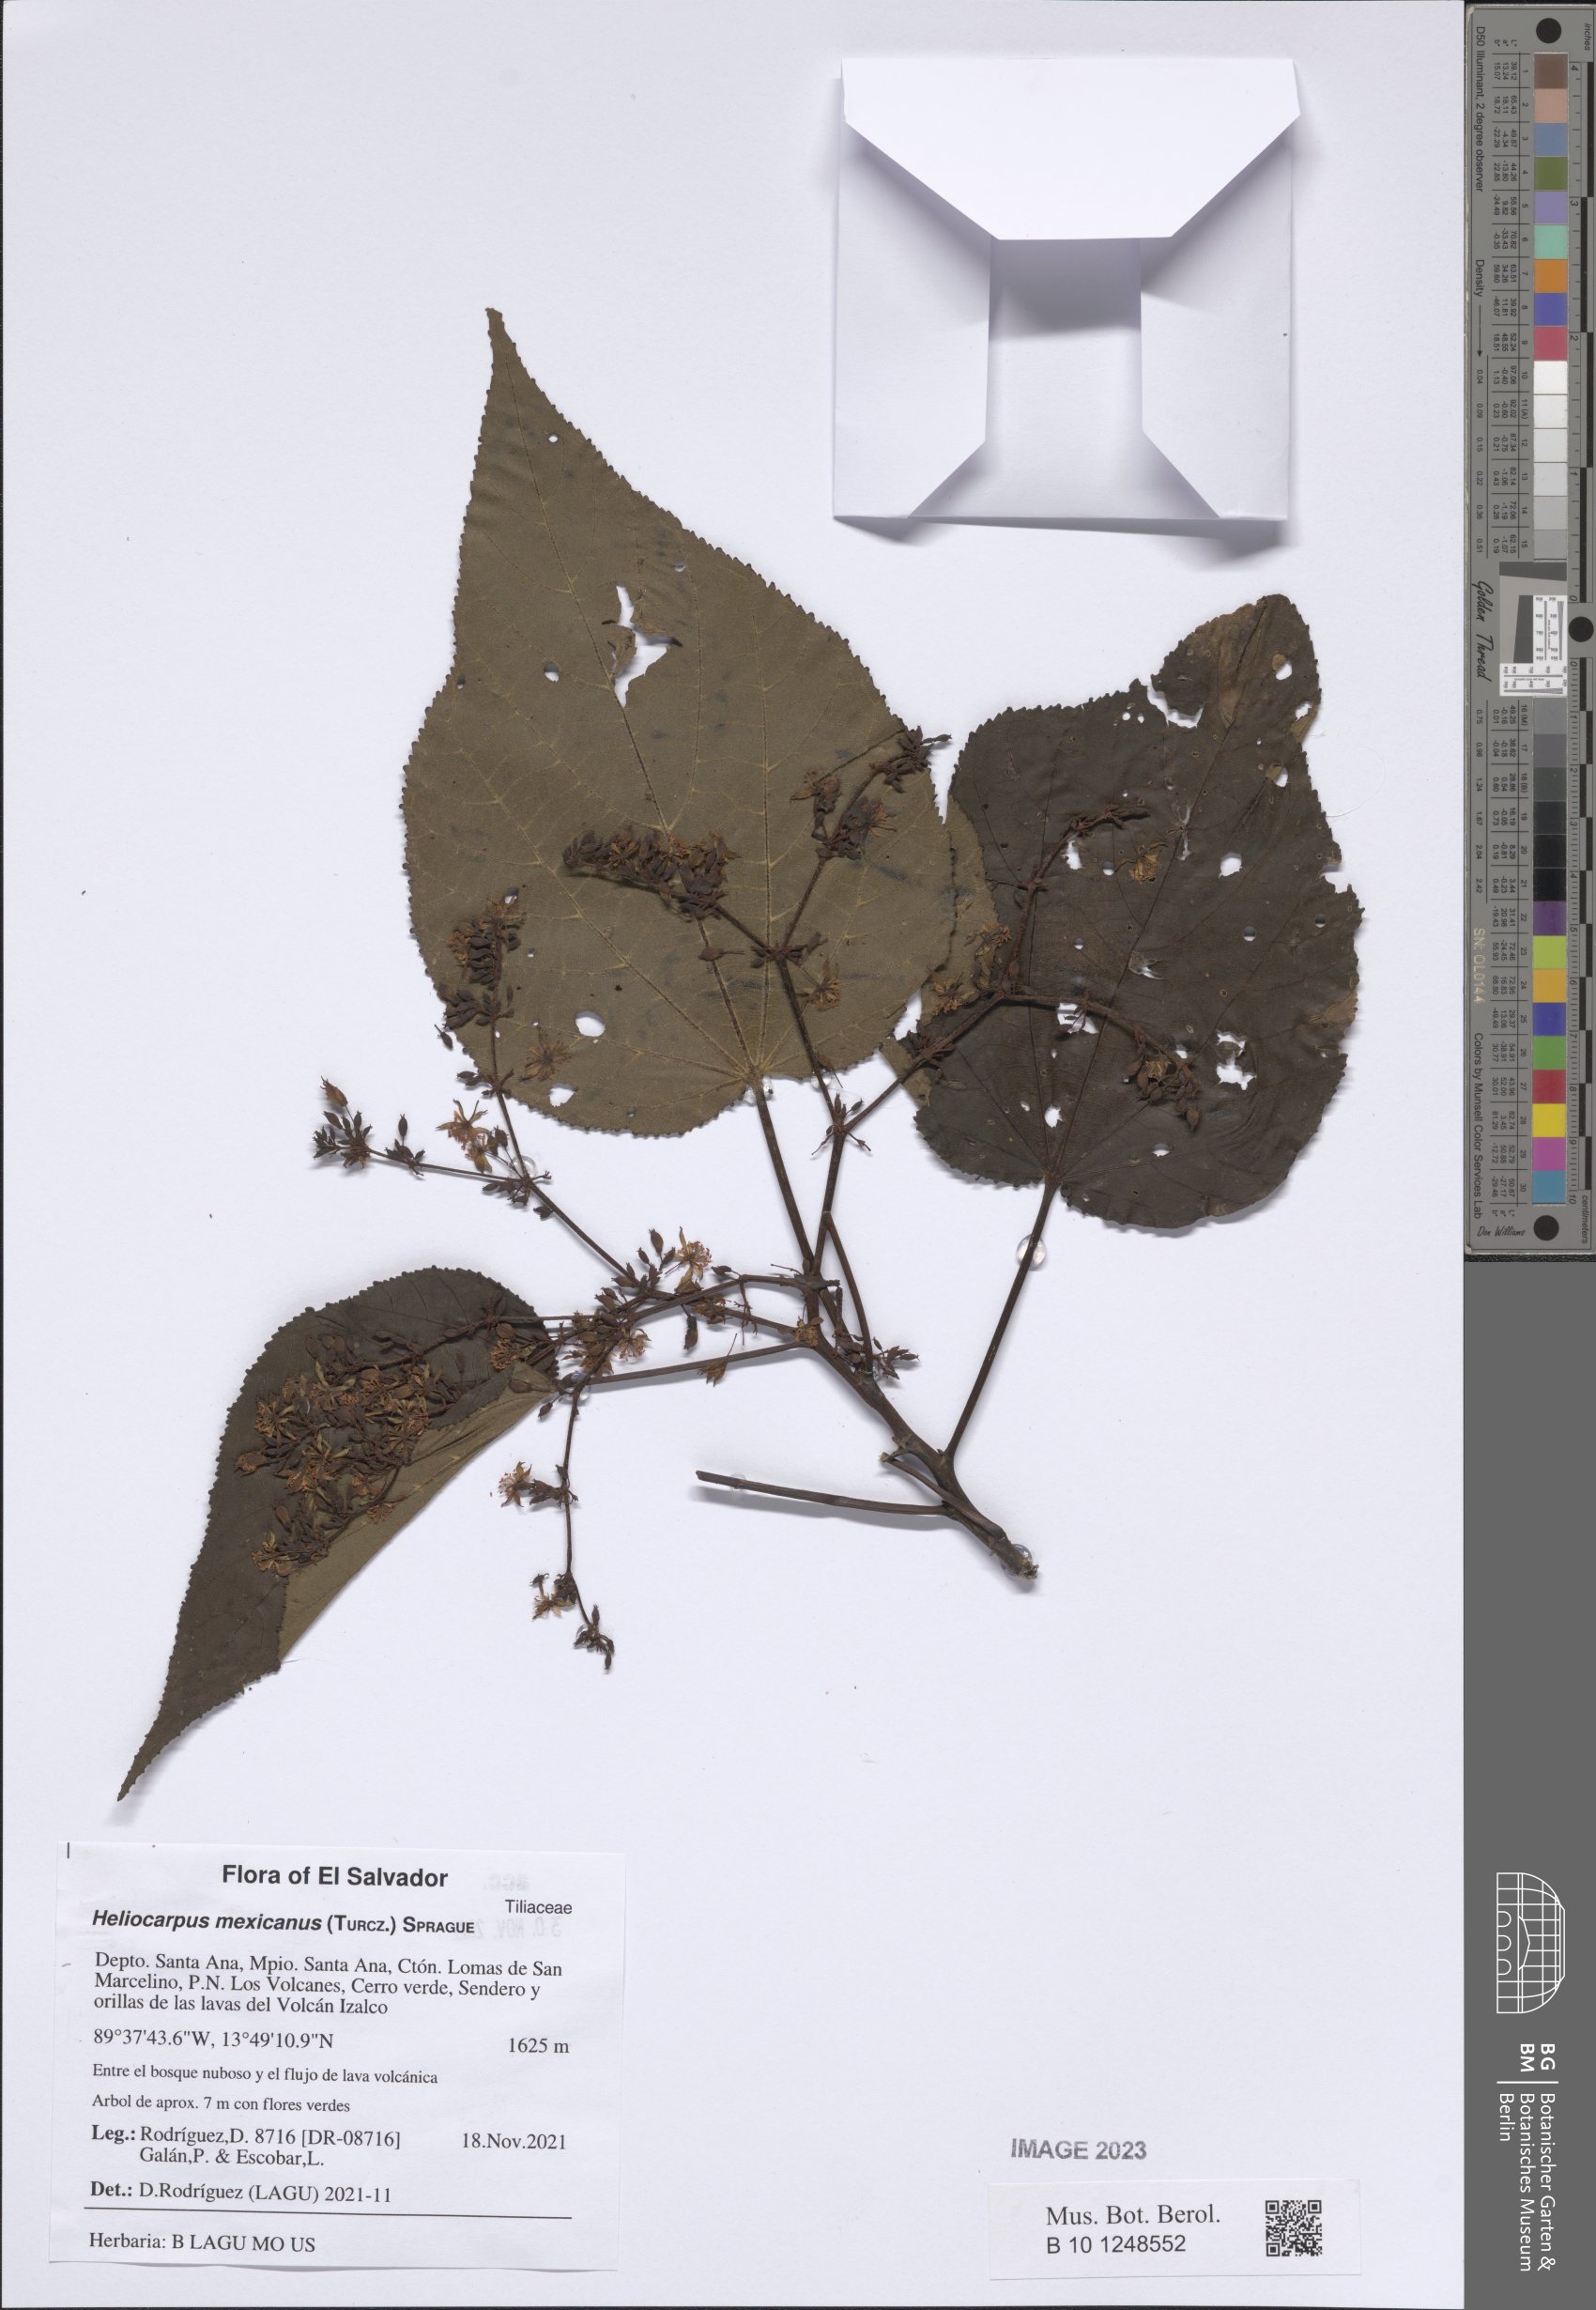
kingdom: Plantae
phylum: Tracheophyta
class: Magnoliopsida
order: Malvales
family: Malvaceae
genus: Heliocarpus
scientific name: Heliocarpus mexicanus
